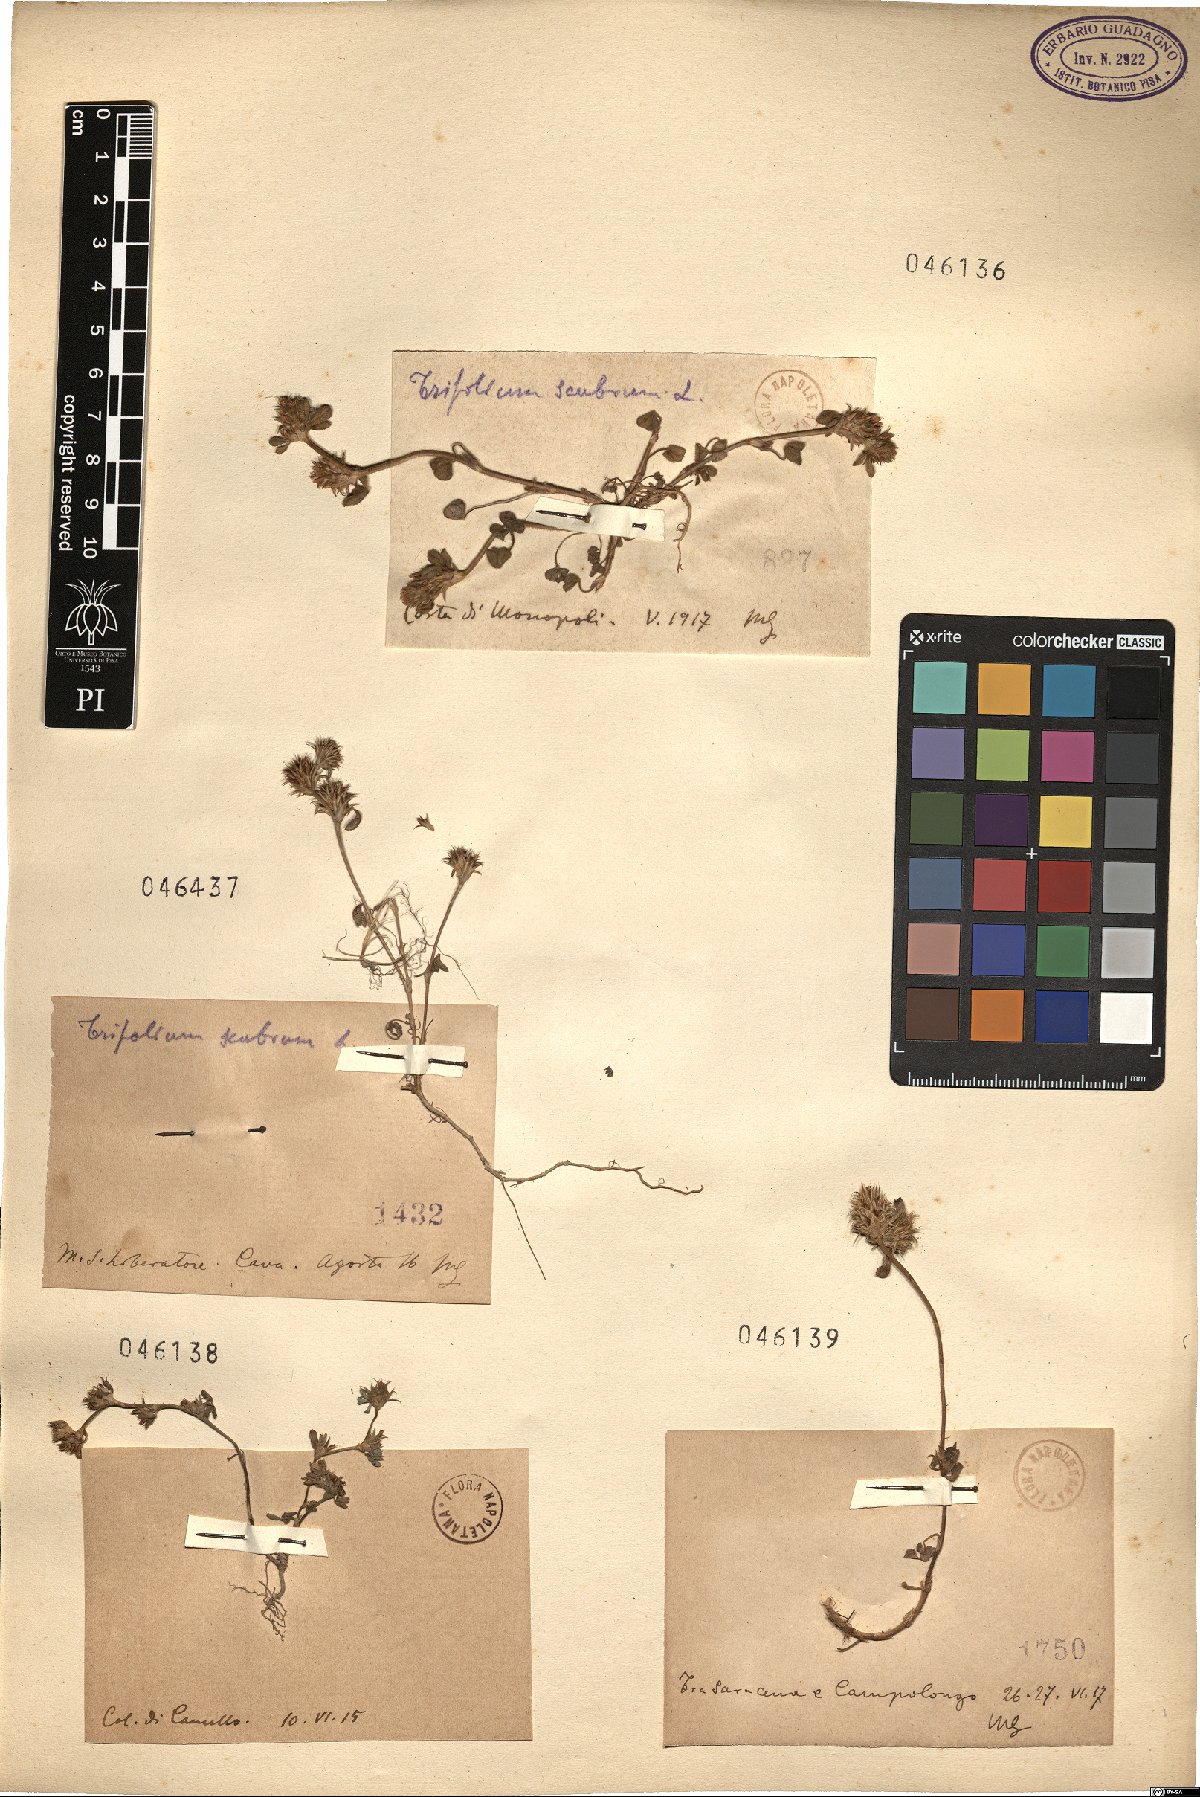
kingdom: Plantae
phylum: Tracheophyta
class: Magnoliopsida
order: Fabales
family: Fabaceae
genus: Trifolium
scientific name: Trifolium
